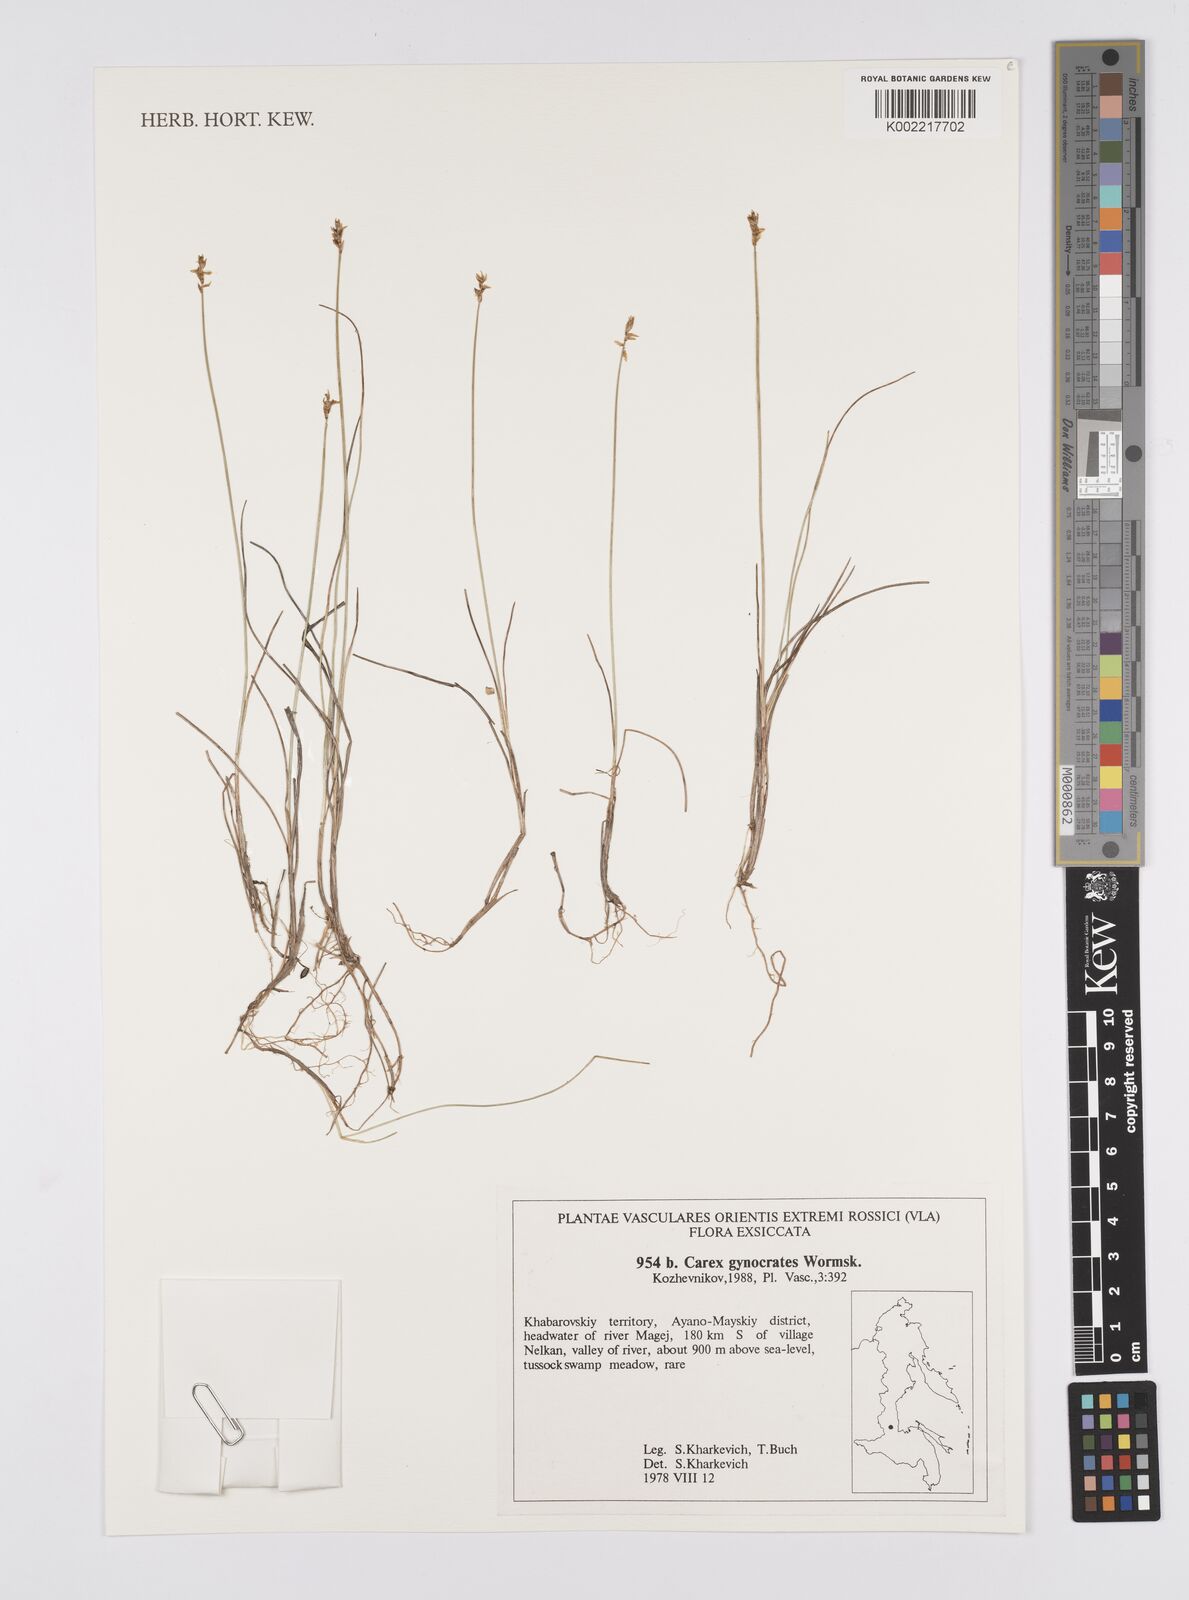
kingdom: Plantae
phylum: Tracheophyta
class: Liliopsida
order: Poales
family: Cyperaceae
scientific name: Cyperaceae
